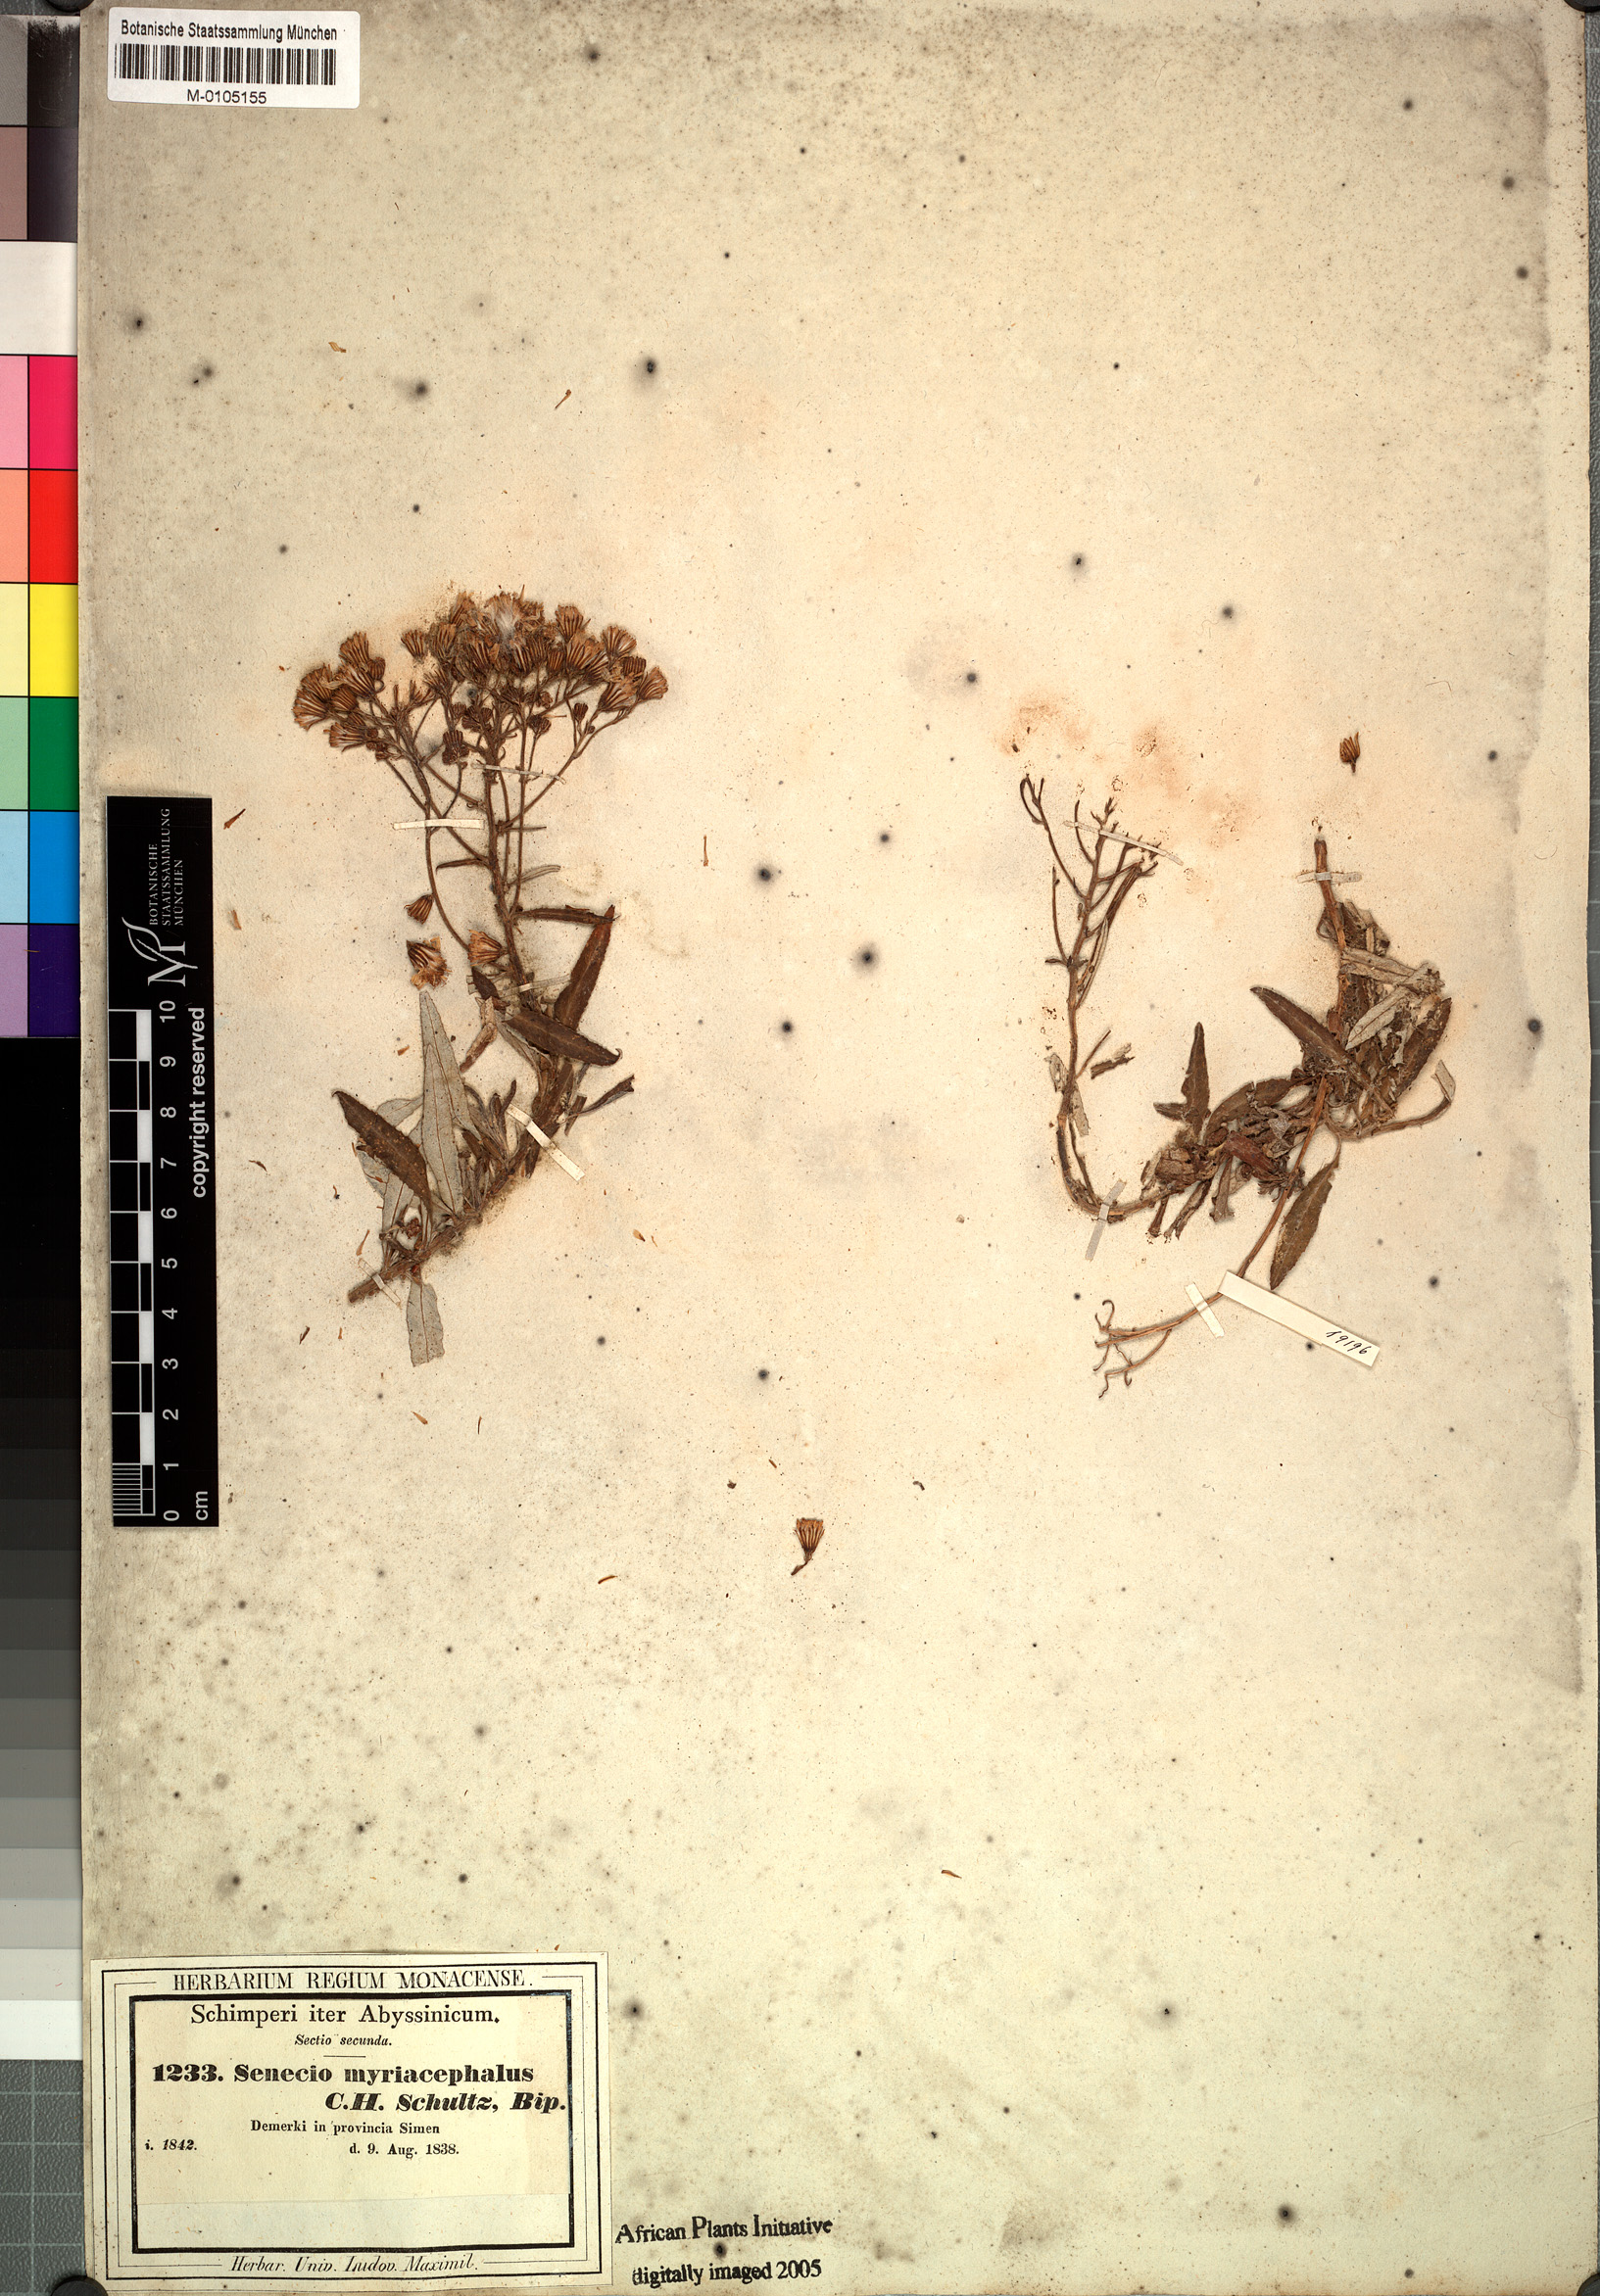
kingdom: Plantae
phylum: Tracheophyta
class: Magnoliopsida
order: Asterales
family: Asteraceae
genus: Senecio
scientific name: Senecio myriocephalus
